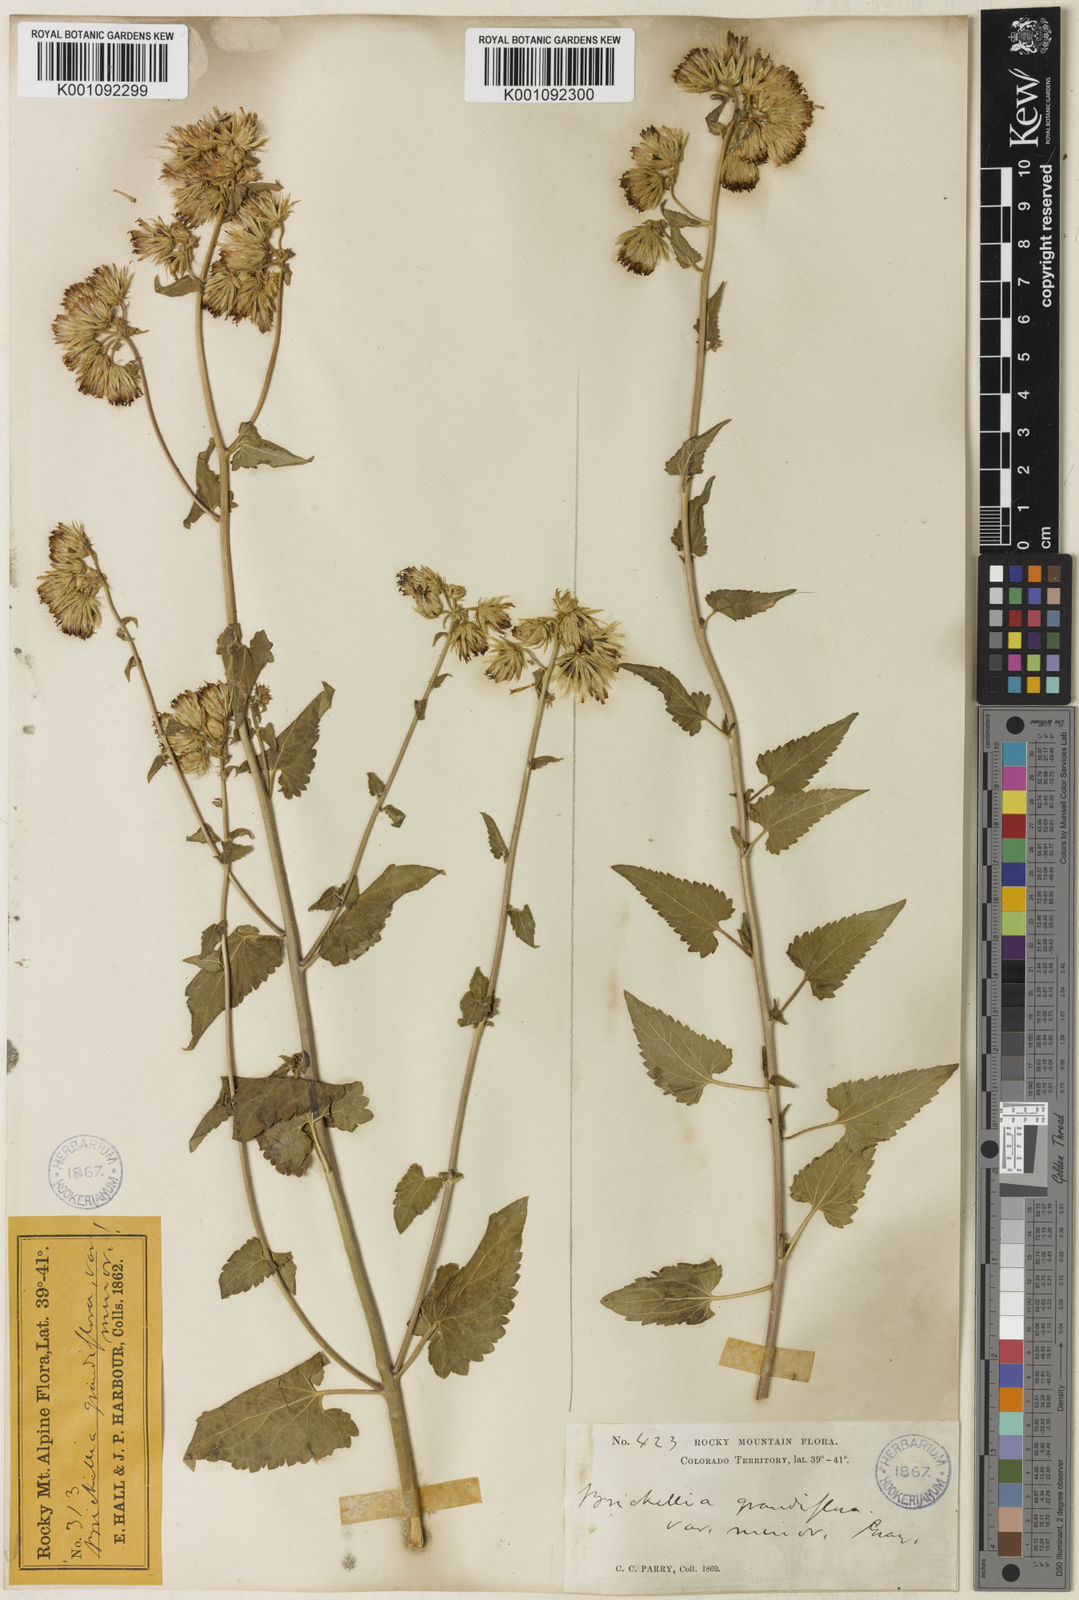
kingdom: Plantae
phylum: Tracheophyta
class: Magnoliopsida
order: Asterales
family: Asteraceae
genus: Brickellia
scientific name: Brickellia grandiflora
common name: Large-flowered brickellia
